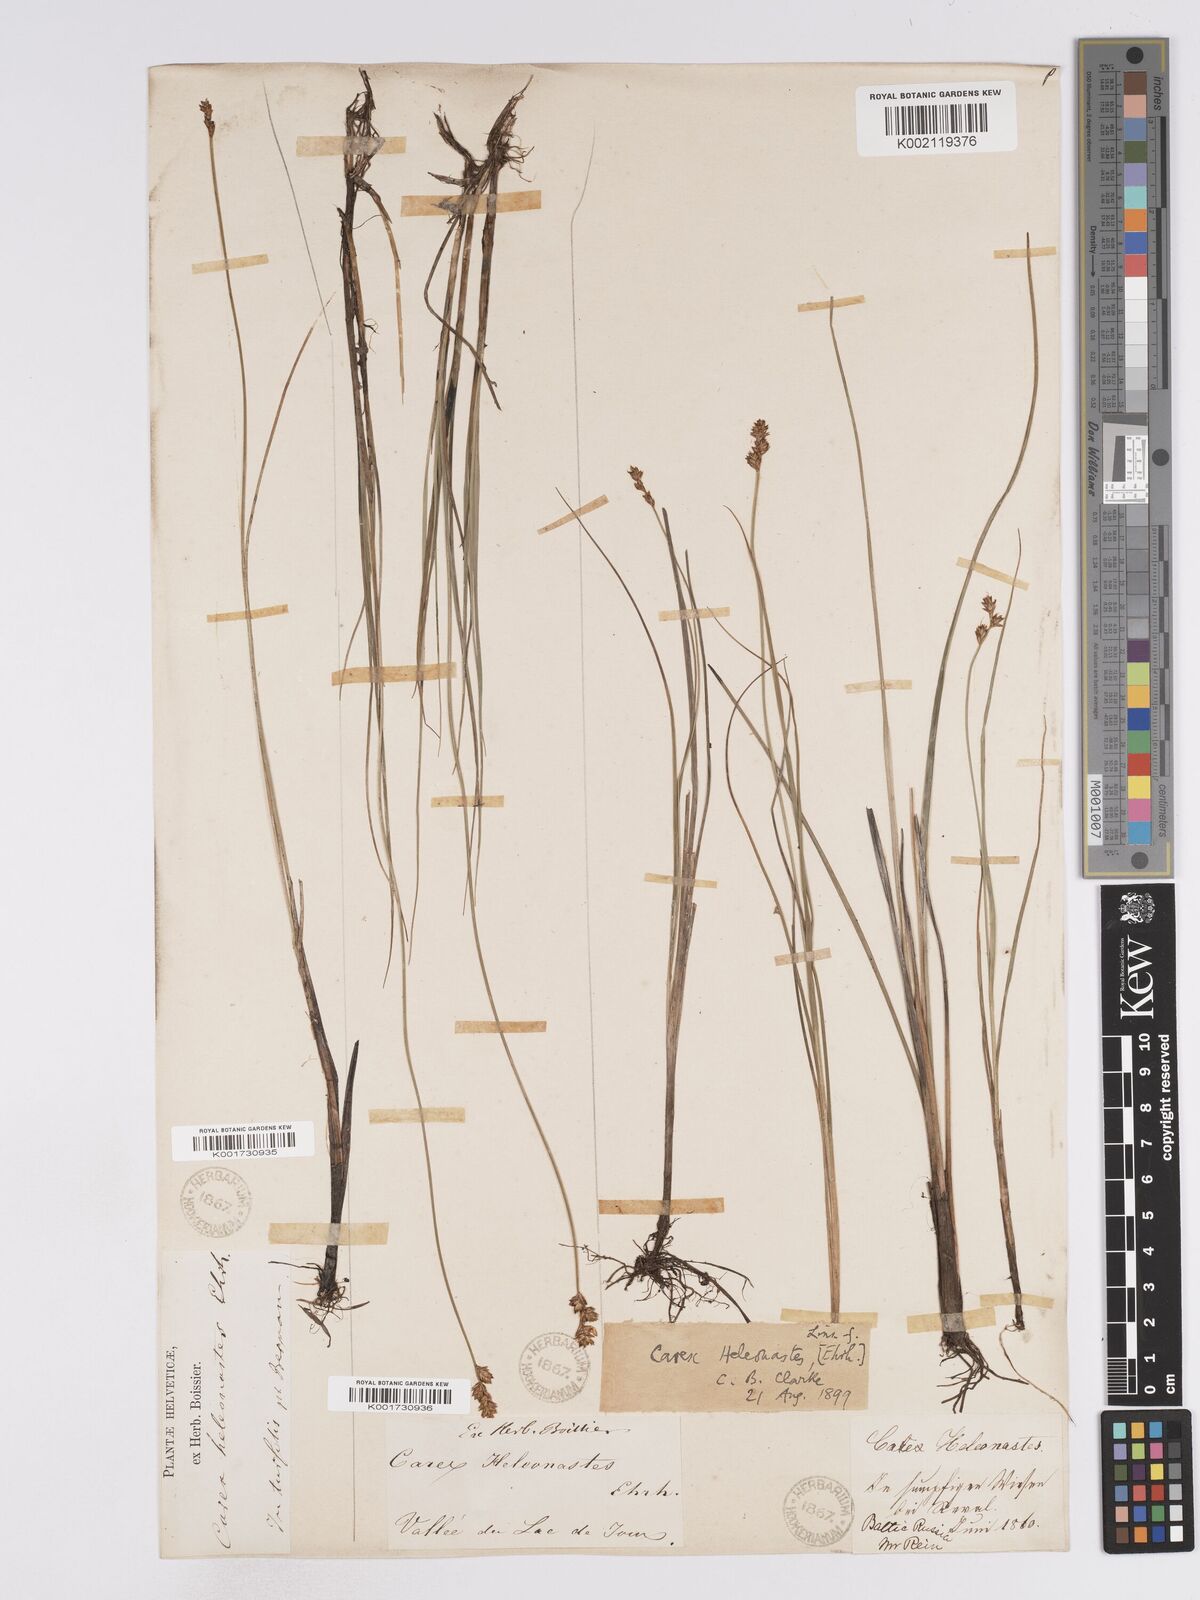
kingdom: Plantae
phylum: Tracheophyta
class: Liliopsida
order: Poales
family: Cyperaceae
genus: Carex
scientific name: Carex heleonastes
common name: Hudson bay sedge
